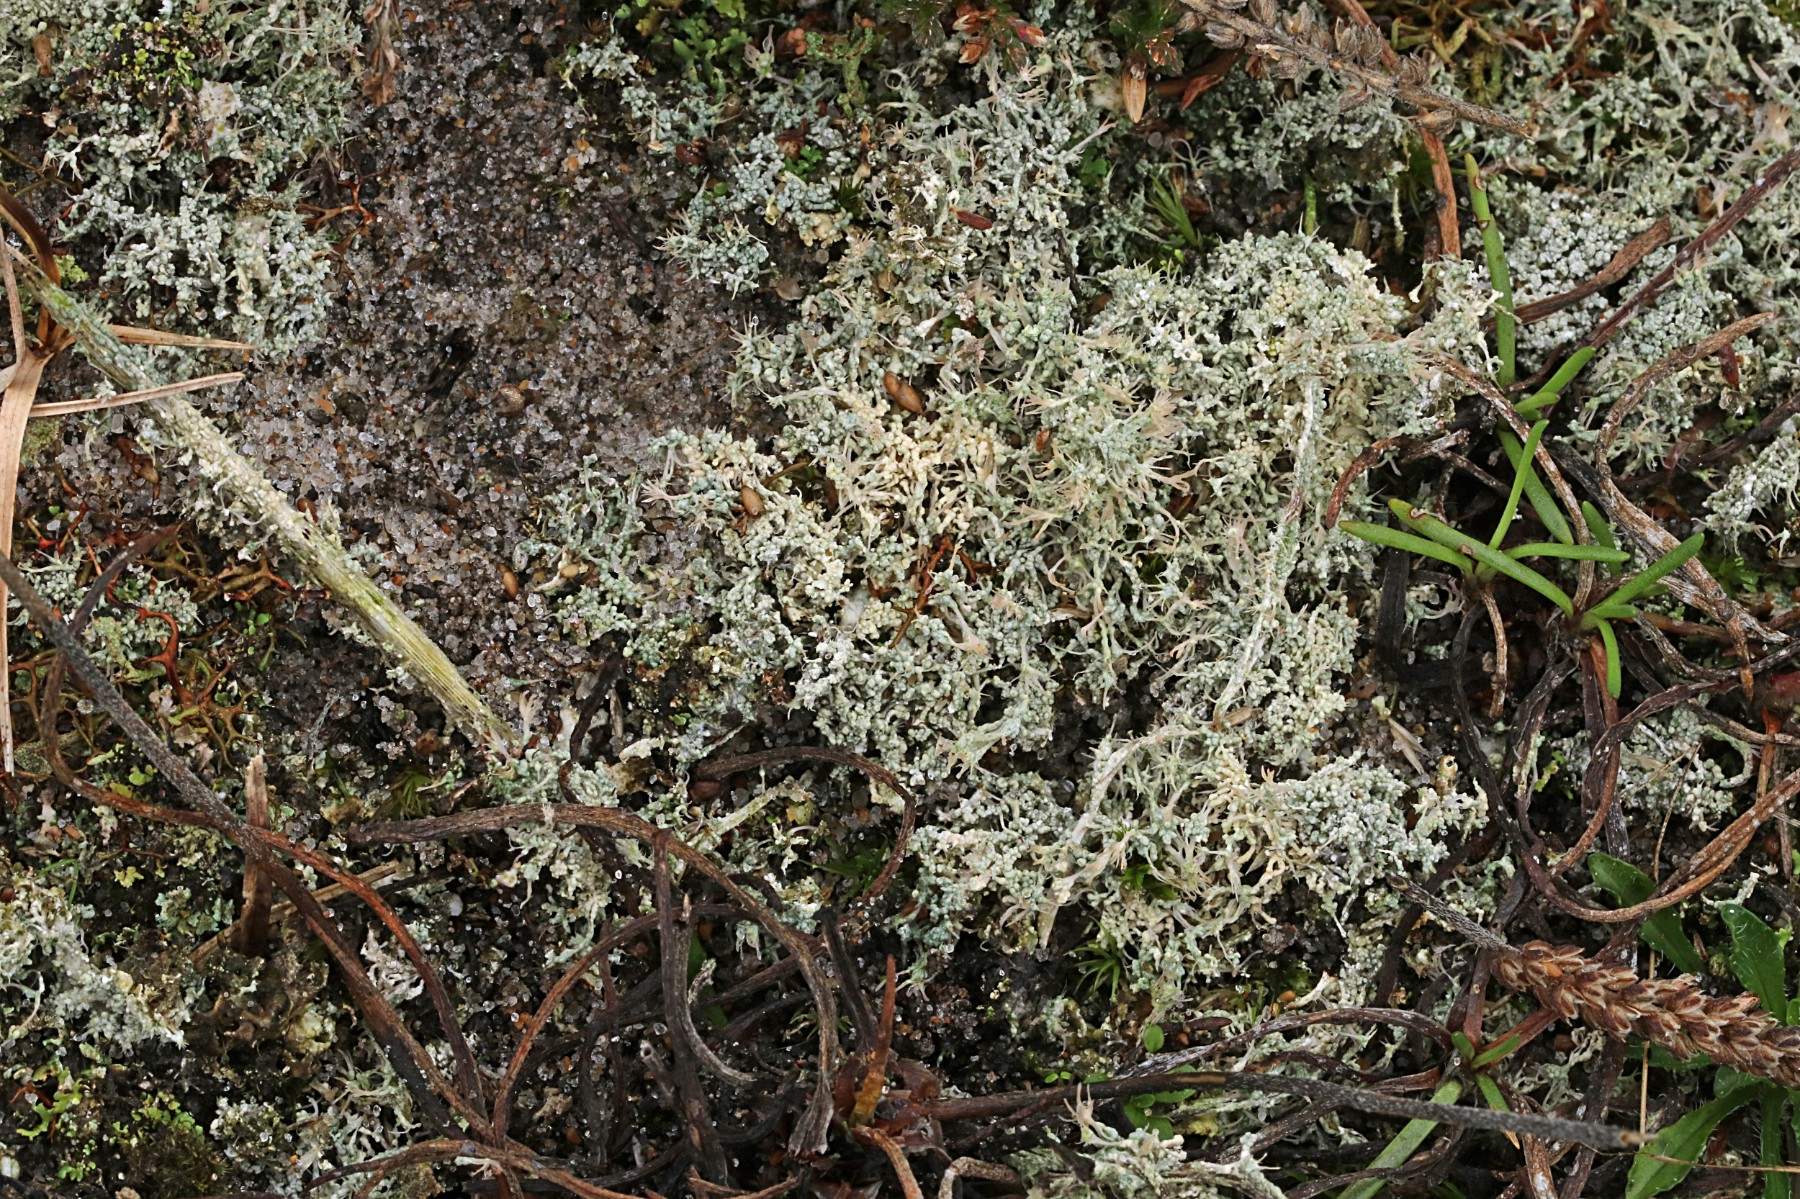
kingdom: Fungi
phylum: Ascomycota
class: Lecanoromycetes
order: Pertusariales
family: Ochrolechiaceae
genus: Ochrolechia
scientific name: Ochrolechia frigida
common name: fjeld-blegskivelav
